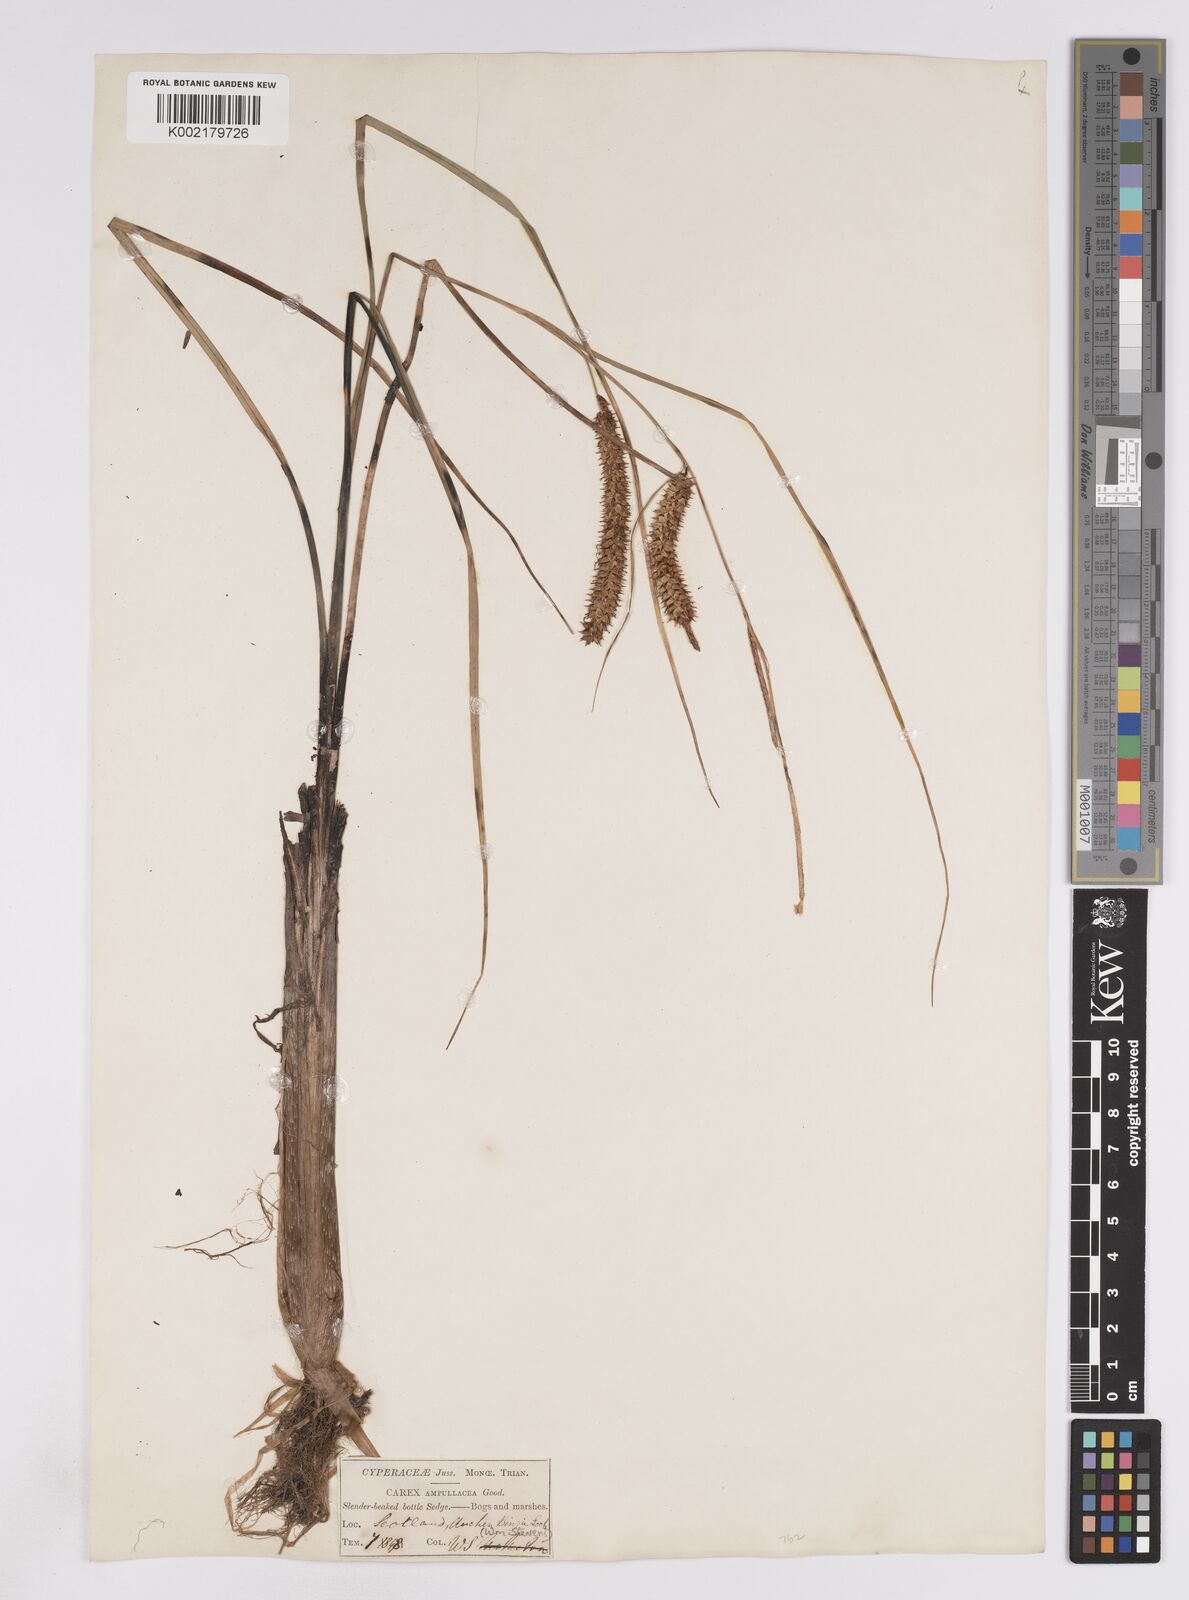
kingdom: Plantae
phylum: Tracheophyta
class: Liliopsida
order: Poales
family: Cyperaceae
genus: Carex
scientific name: Carex rostrata
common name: Bottle sedge
